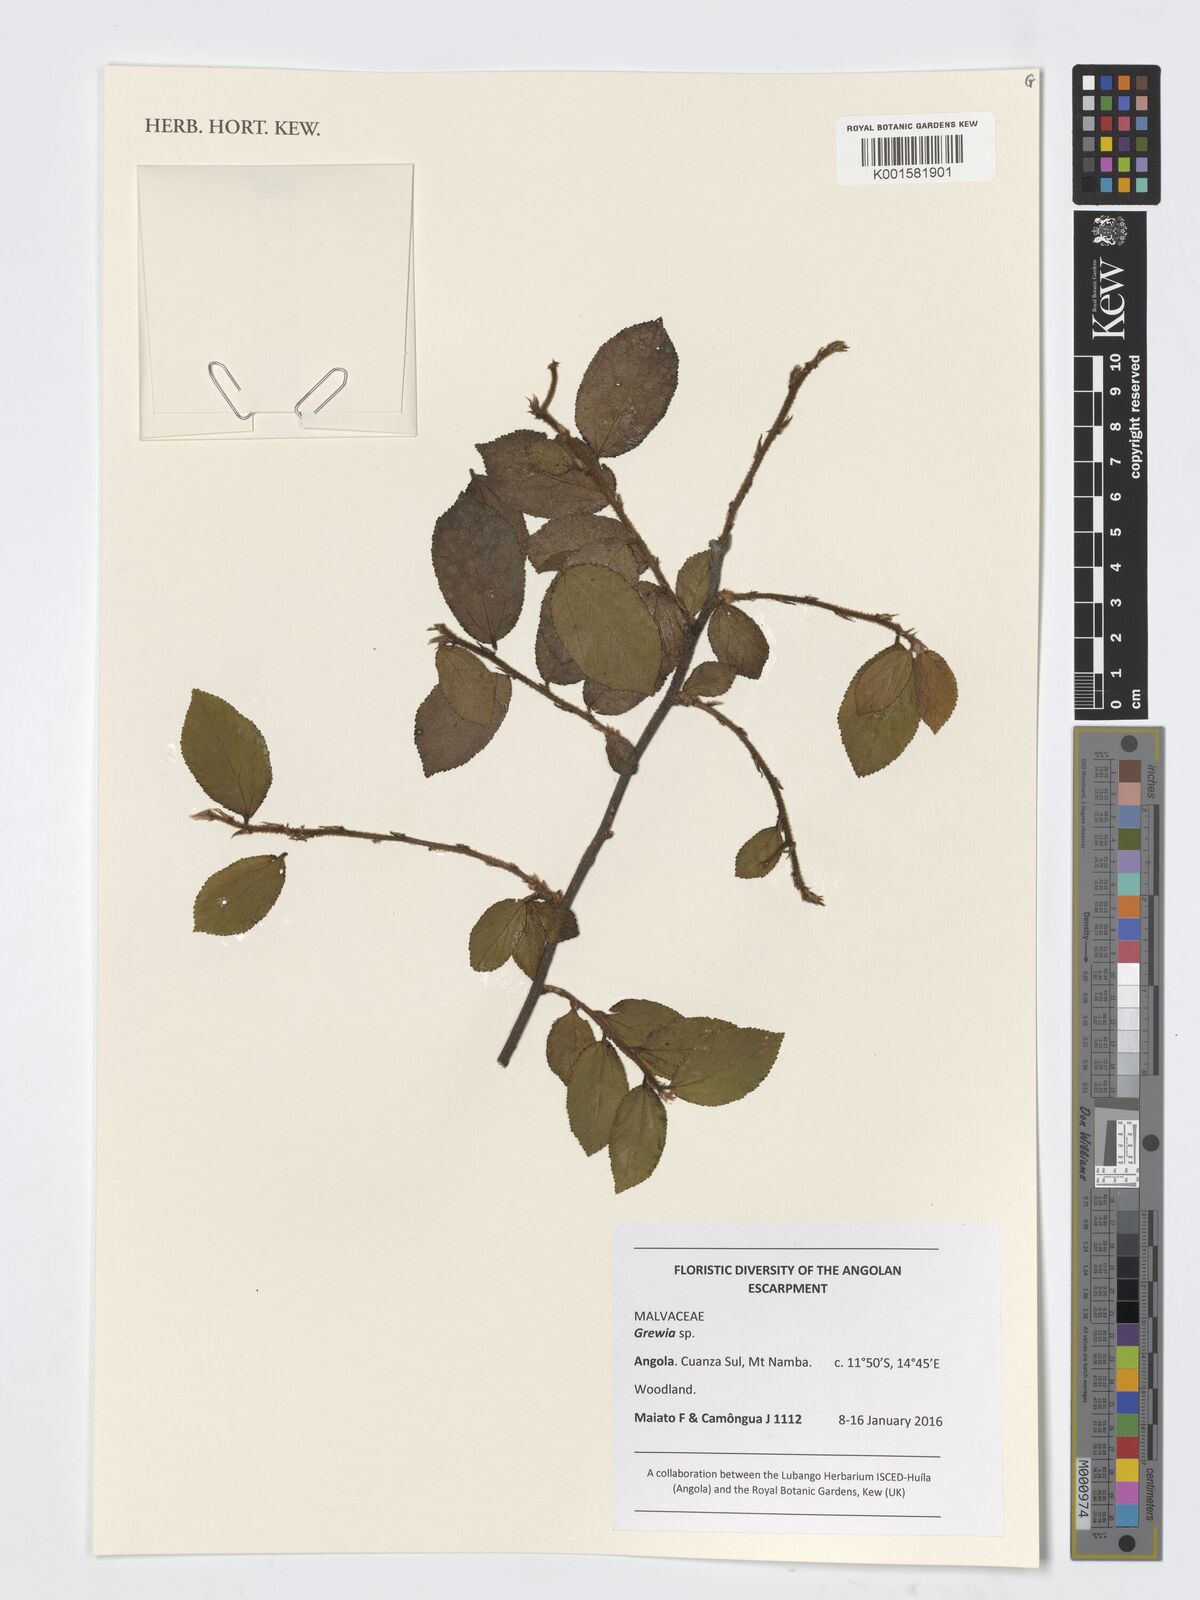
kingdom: Plantae
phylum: Tracheophyta
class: Magnoliopsida
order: Malvales
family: Malvaceae
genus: Grewia
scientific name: Grewia
